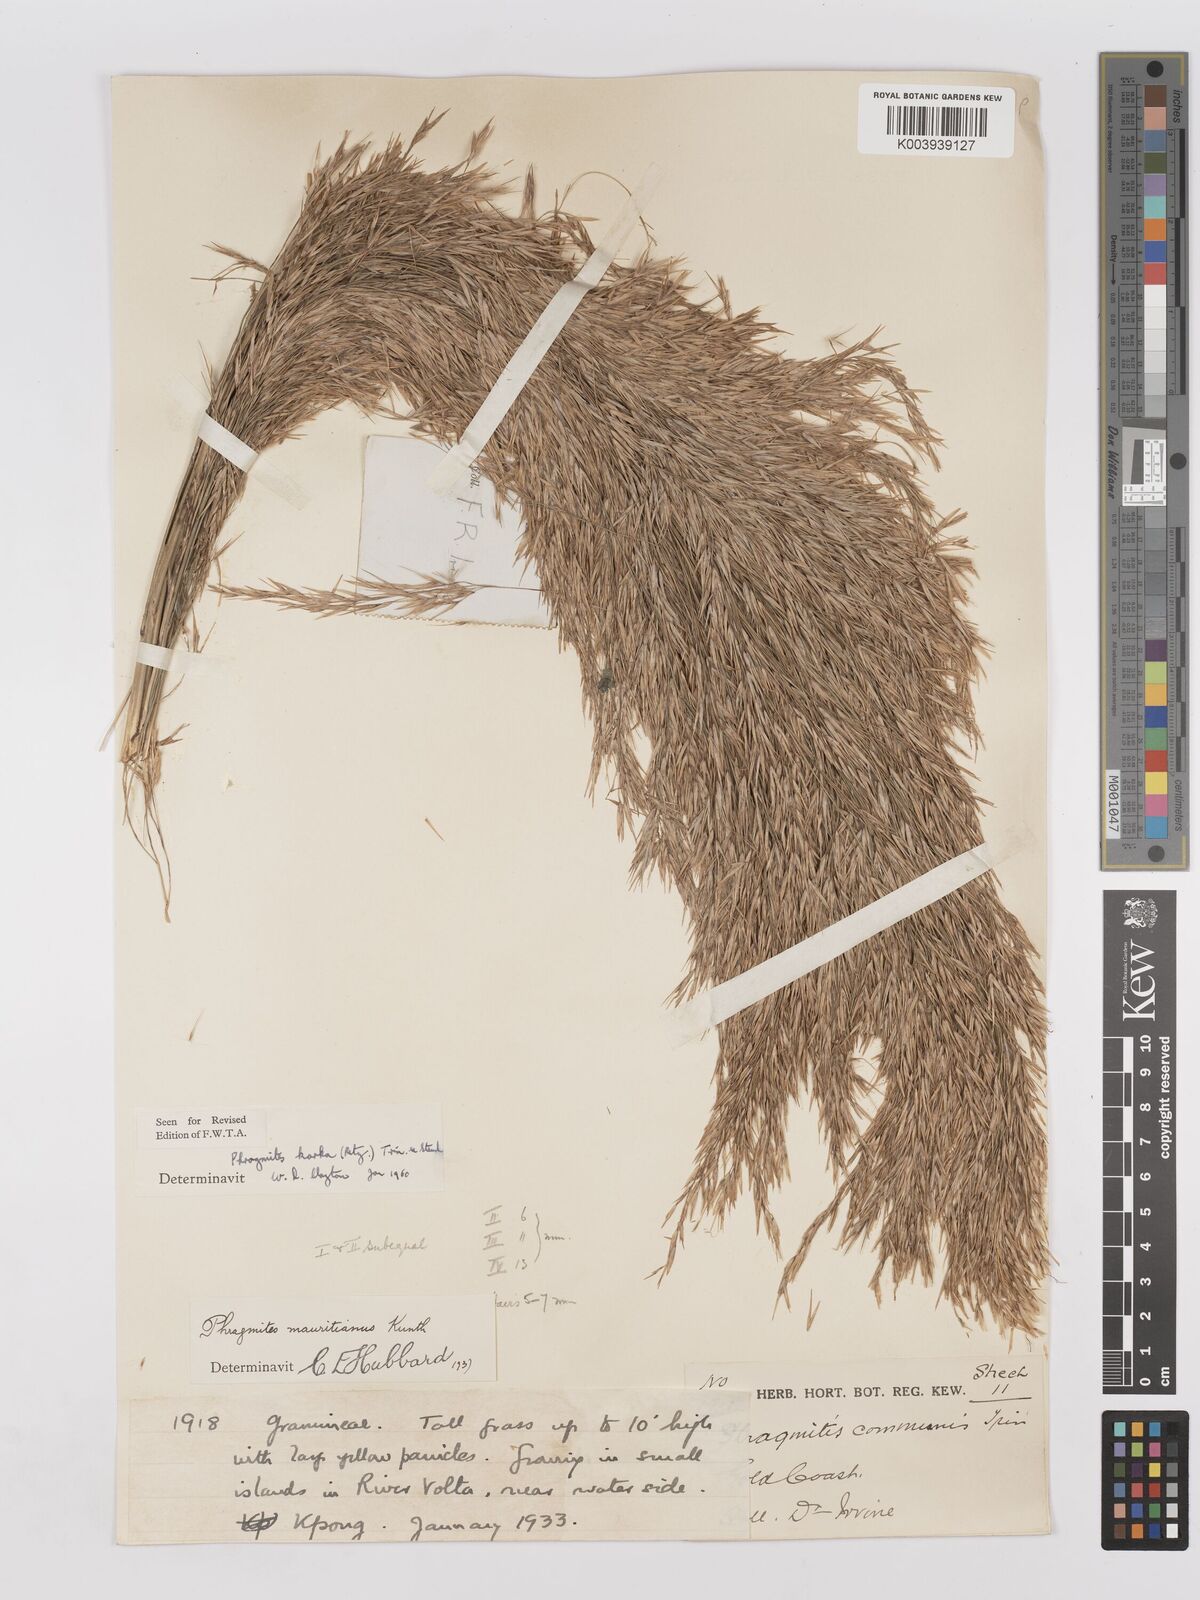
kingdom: Plantae
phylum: Tracheophyta
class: Liliopsida
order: Poales
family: Poaceae
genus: Phragmites
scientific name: Phragmites karka
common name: Tropical reed
